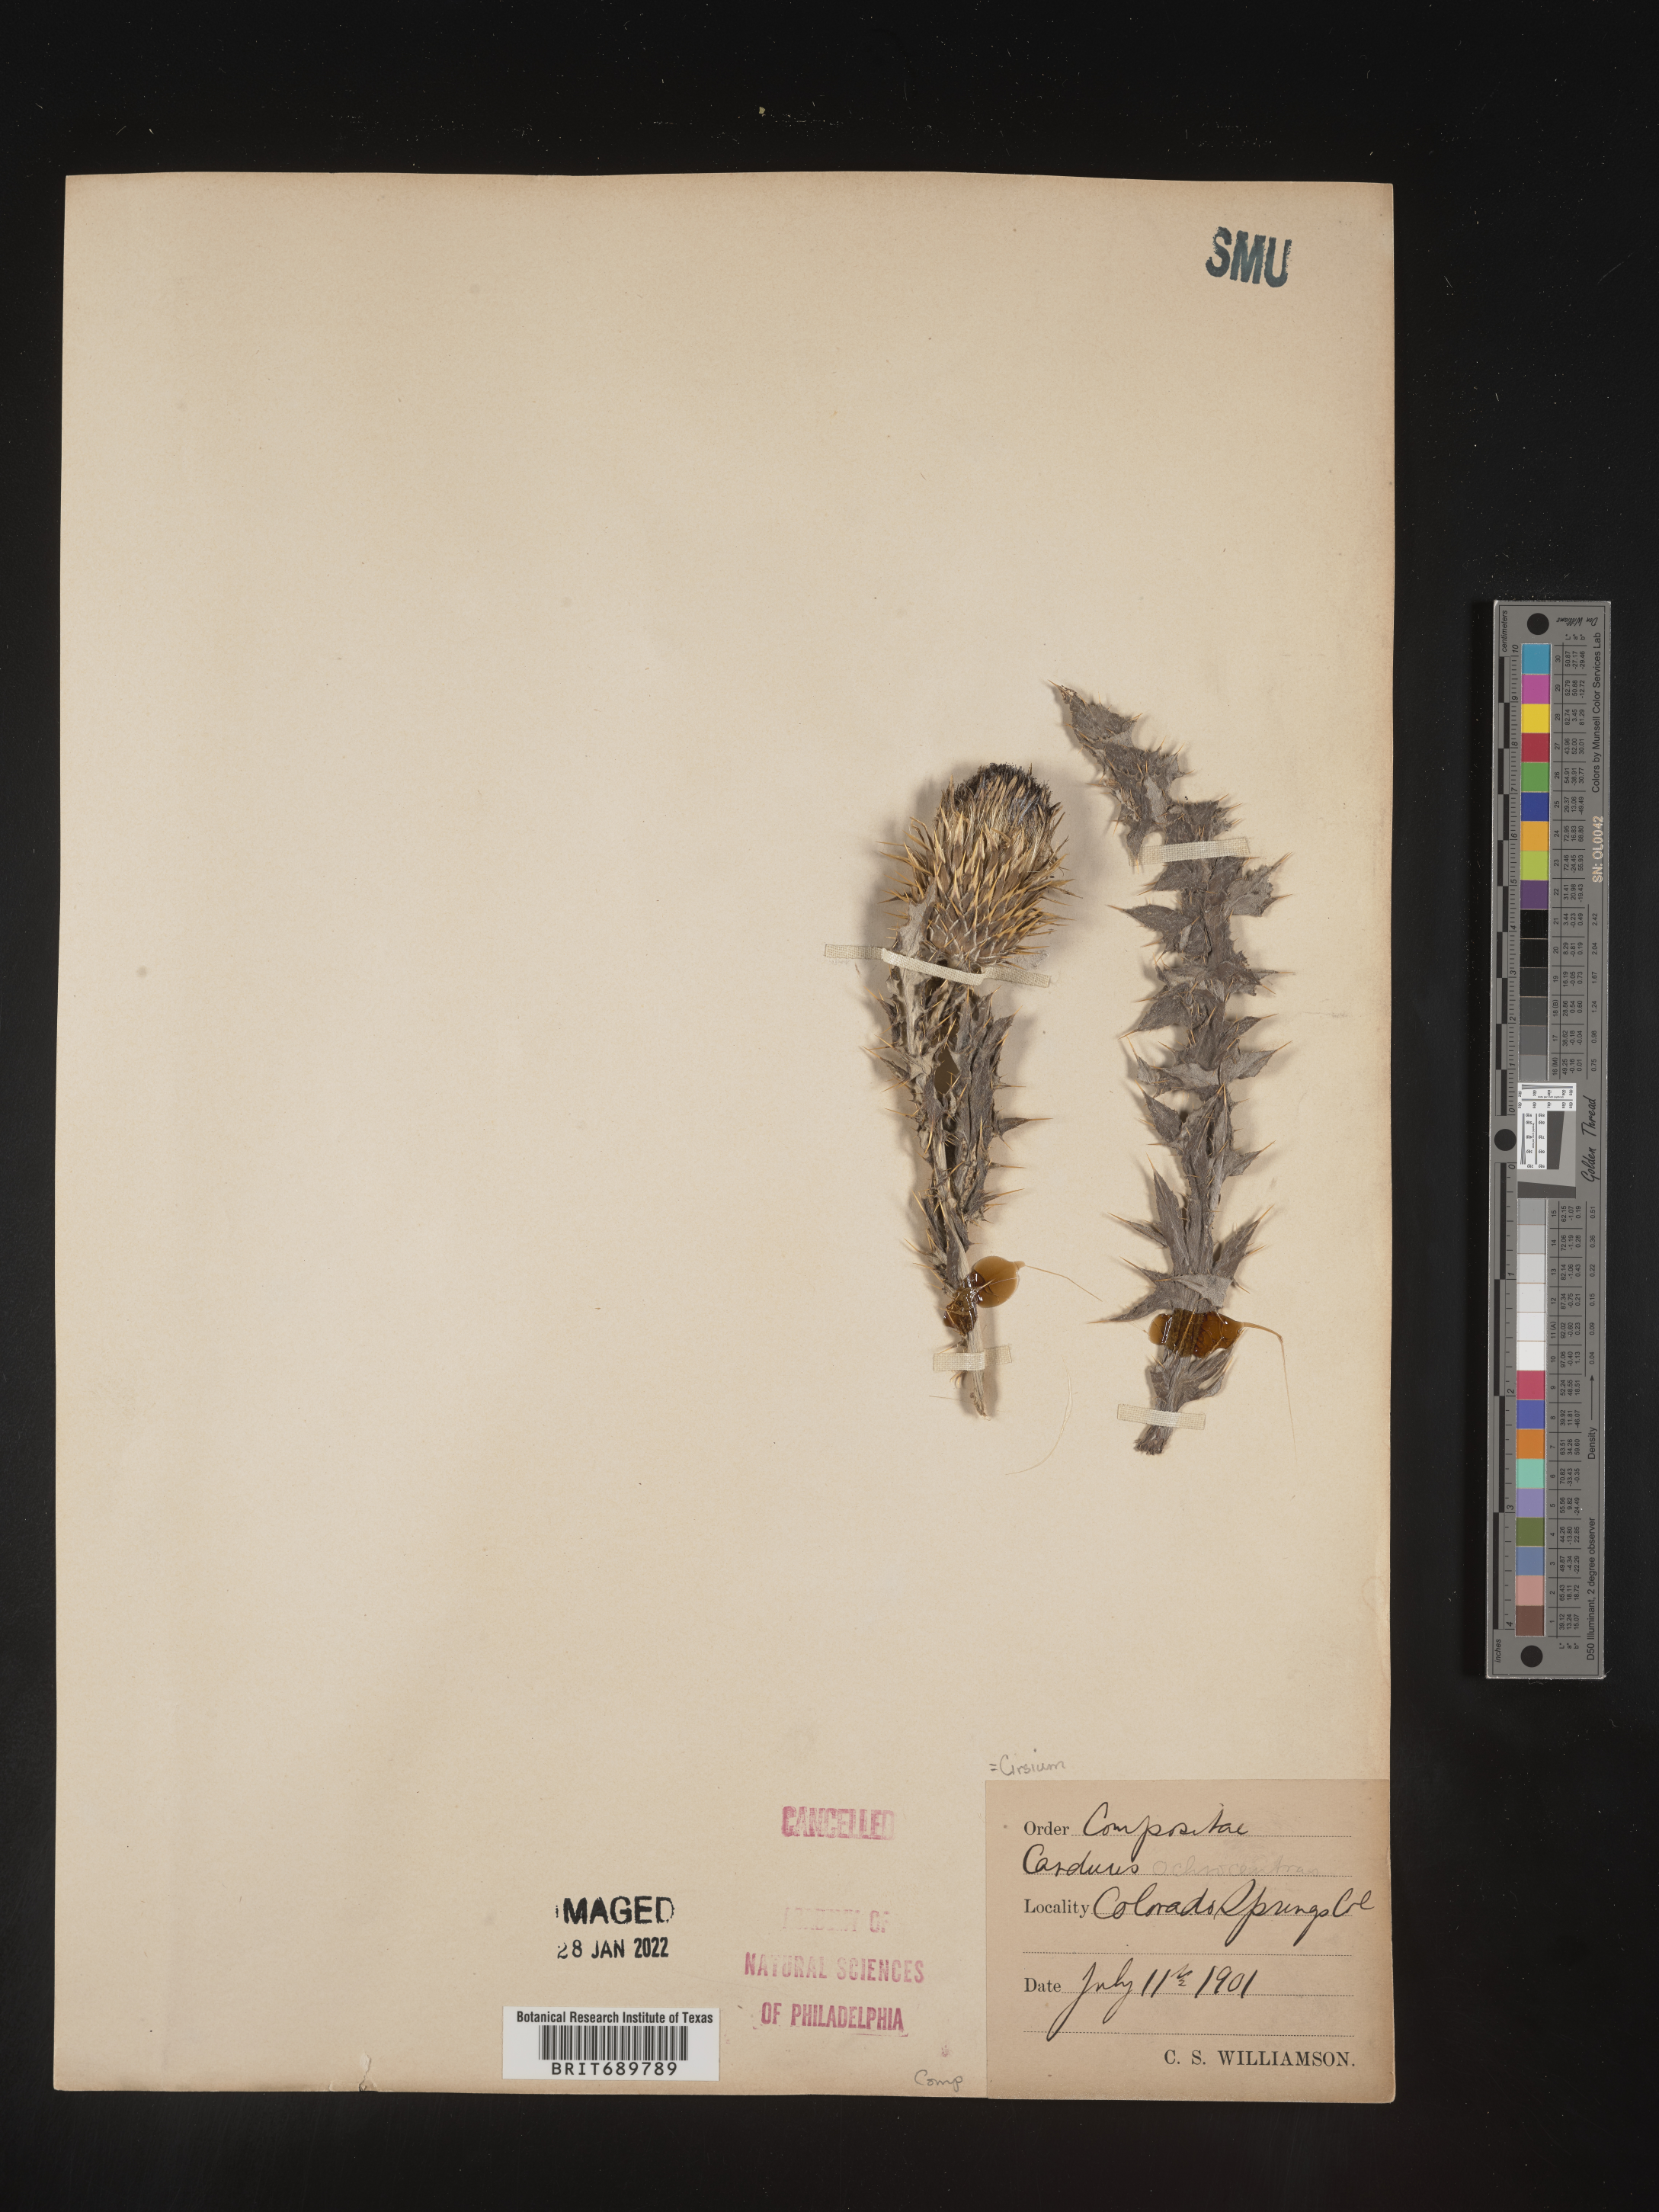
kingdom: Plantae
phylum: Tracheophyta
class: Magnoliopsida
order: Asterales
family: Asteraceae
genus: Cirsium
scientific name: Cirsium ochrocentrum
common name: Yellow-spine thistle
